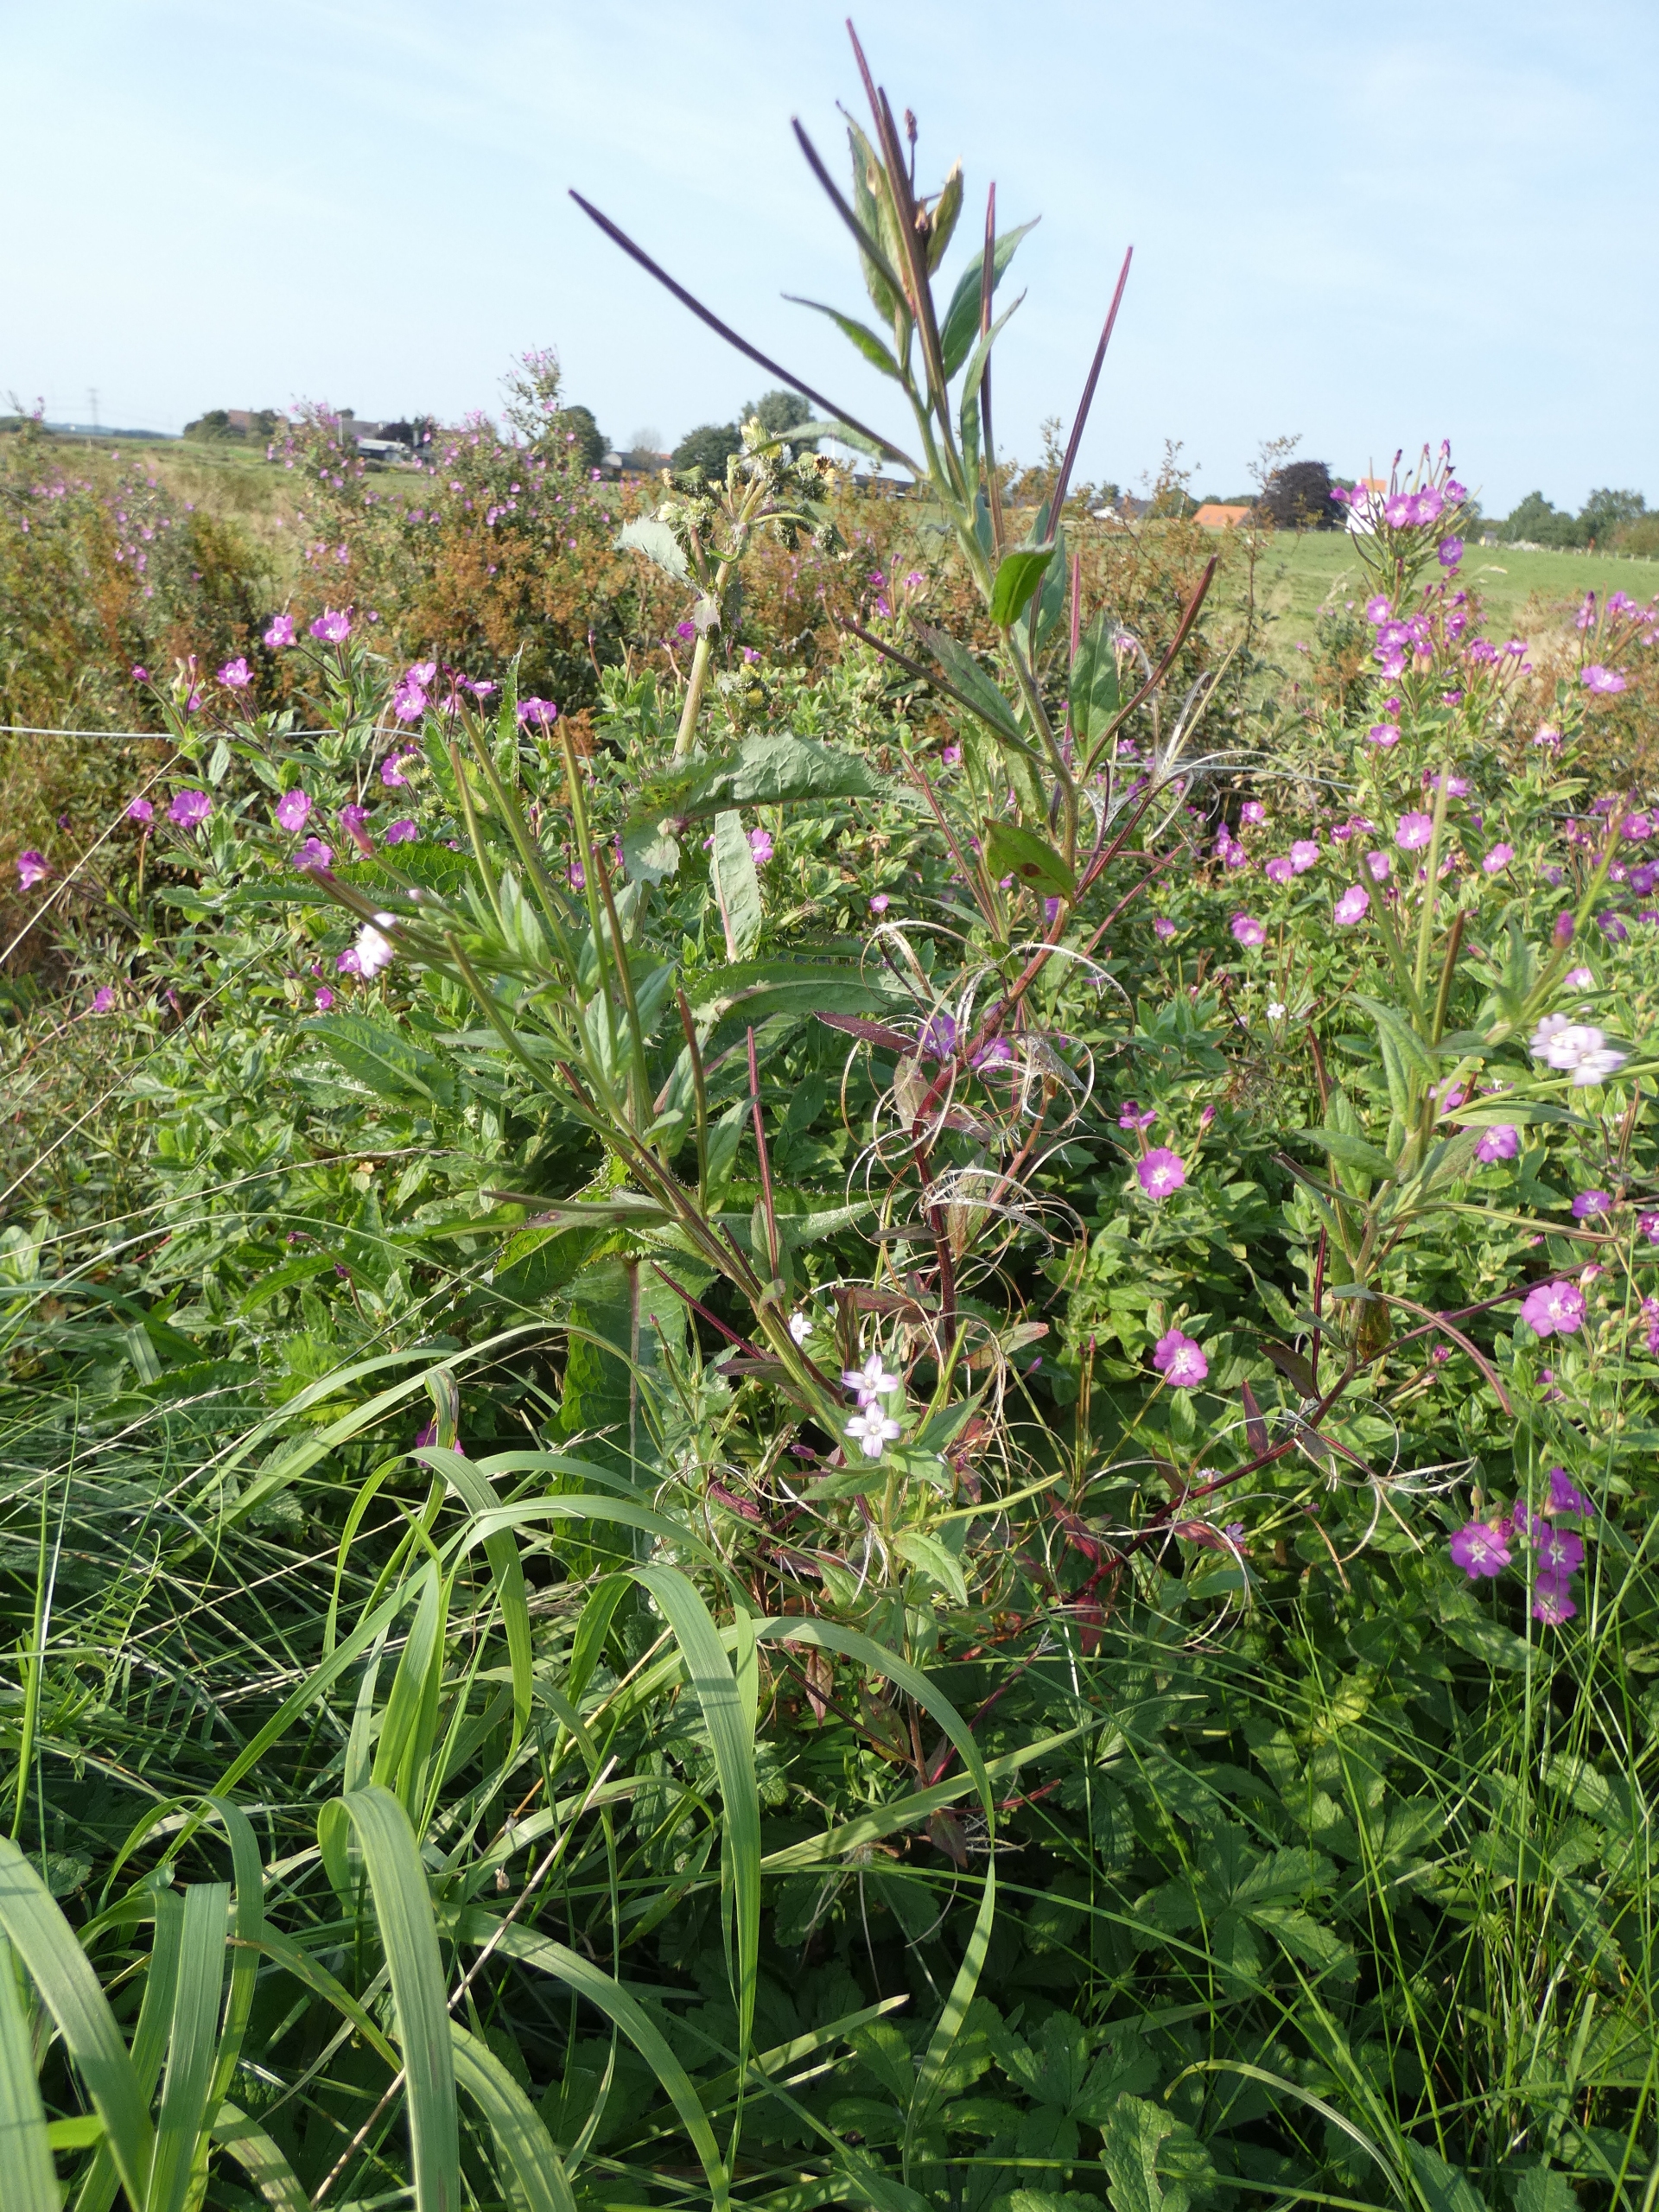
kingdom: Plantae
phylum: Tracheophyta
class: Magnoliopsida
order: Myrtales
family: Onagraceae
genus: Epilobium
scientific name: Epilobium ciliatum
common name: Kirtlet dueurt
